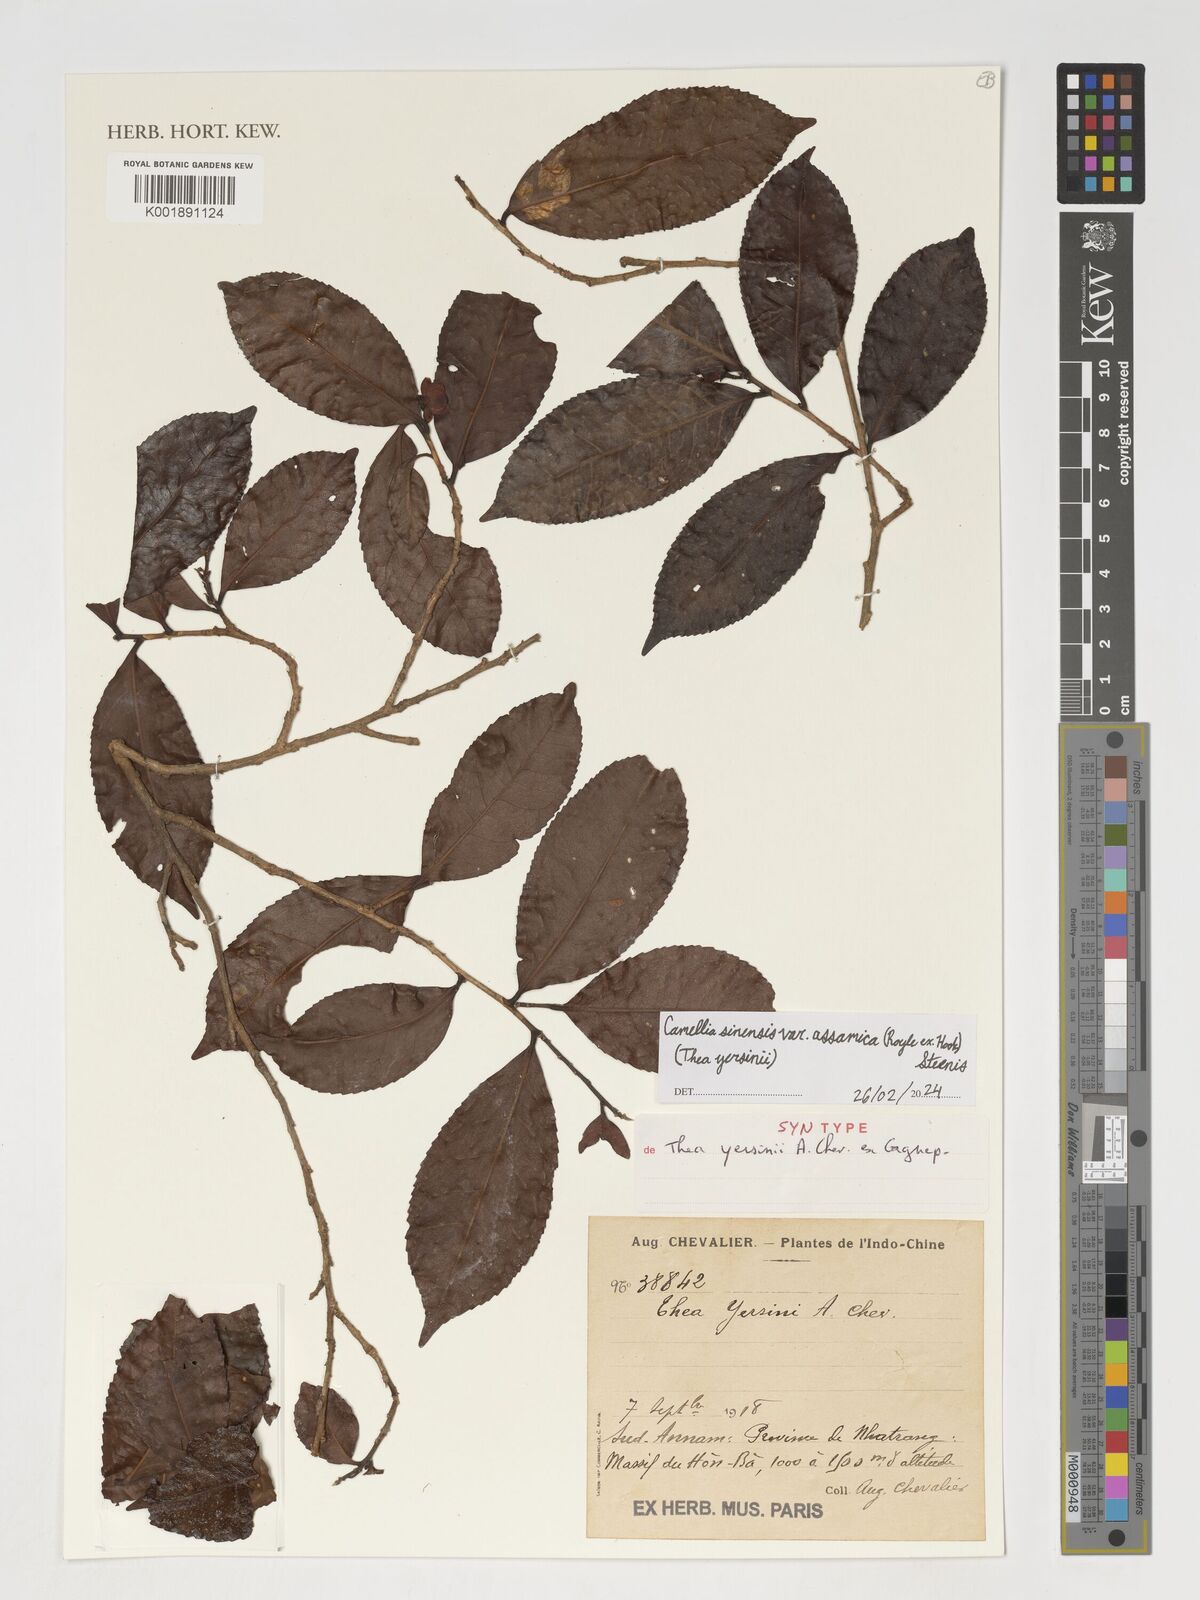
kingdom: Plantae
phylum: Tracheophyta
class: Magnoliopsida
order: Ericales
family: Theaceae
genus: Camellia
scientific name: Camellia
